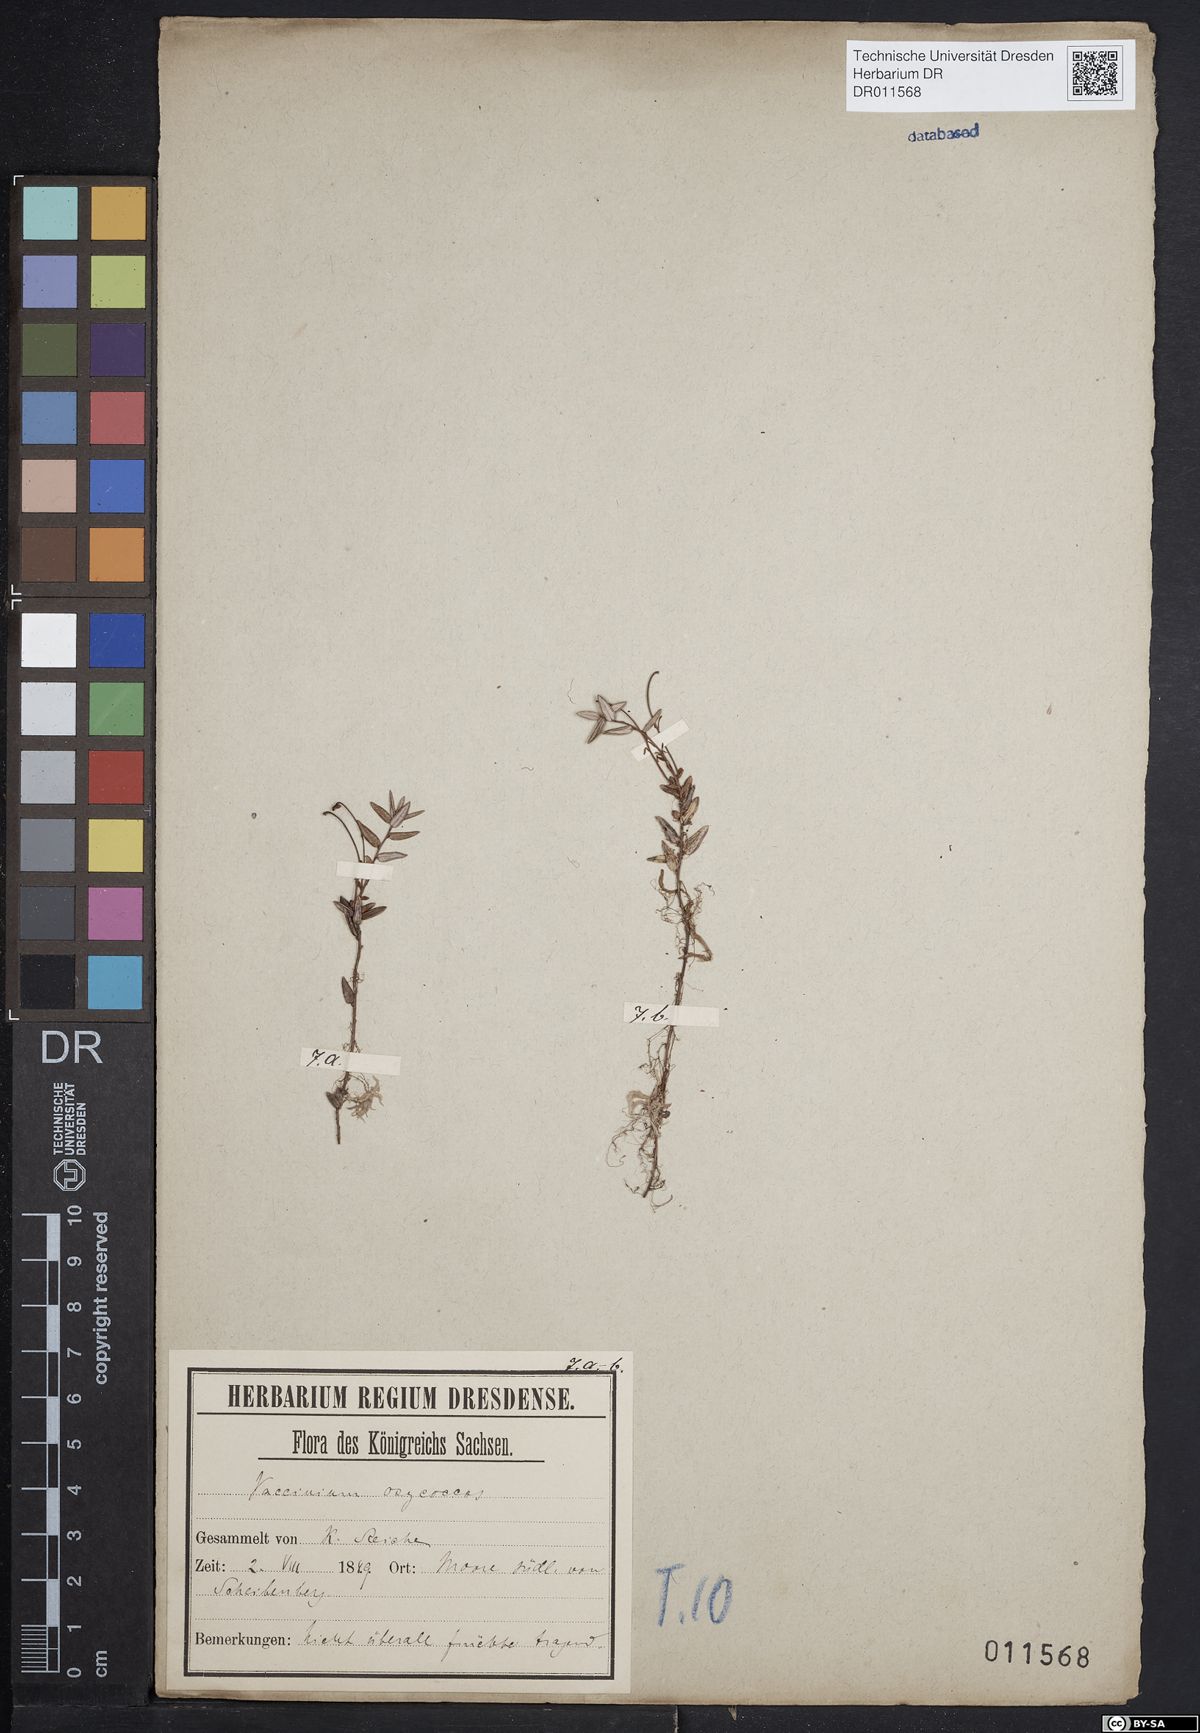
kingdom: Plantae
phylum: Tracheophyta
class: Magnoliopsida
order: Ericales
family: Ericaceae
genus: Vaccinium
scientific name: Vaccinium oxycoccos
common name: Cranberry
